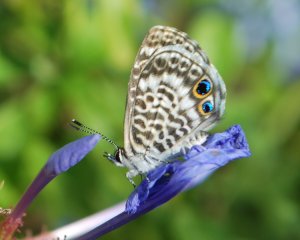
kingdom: Animalia
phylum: Arthropoda
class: Insecta
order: Lepidoptera
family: Lycaenidae
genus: Leptotes
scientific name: Leptotes cassius
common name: Cassius Blue
